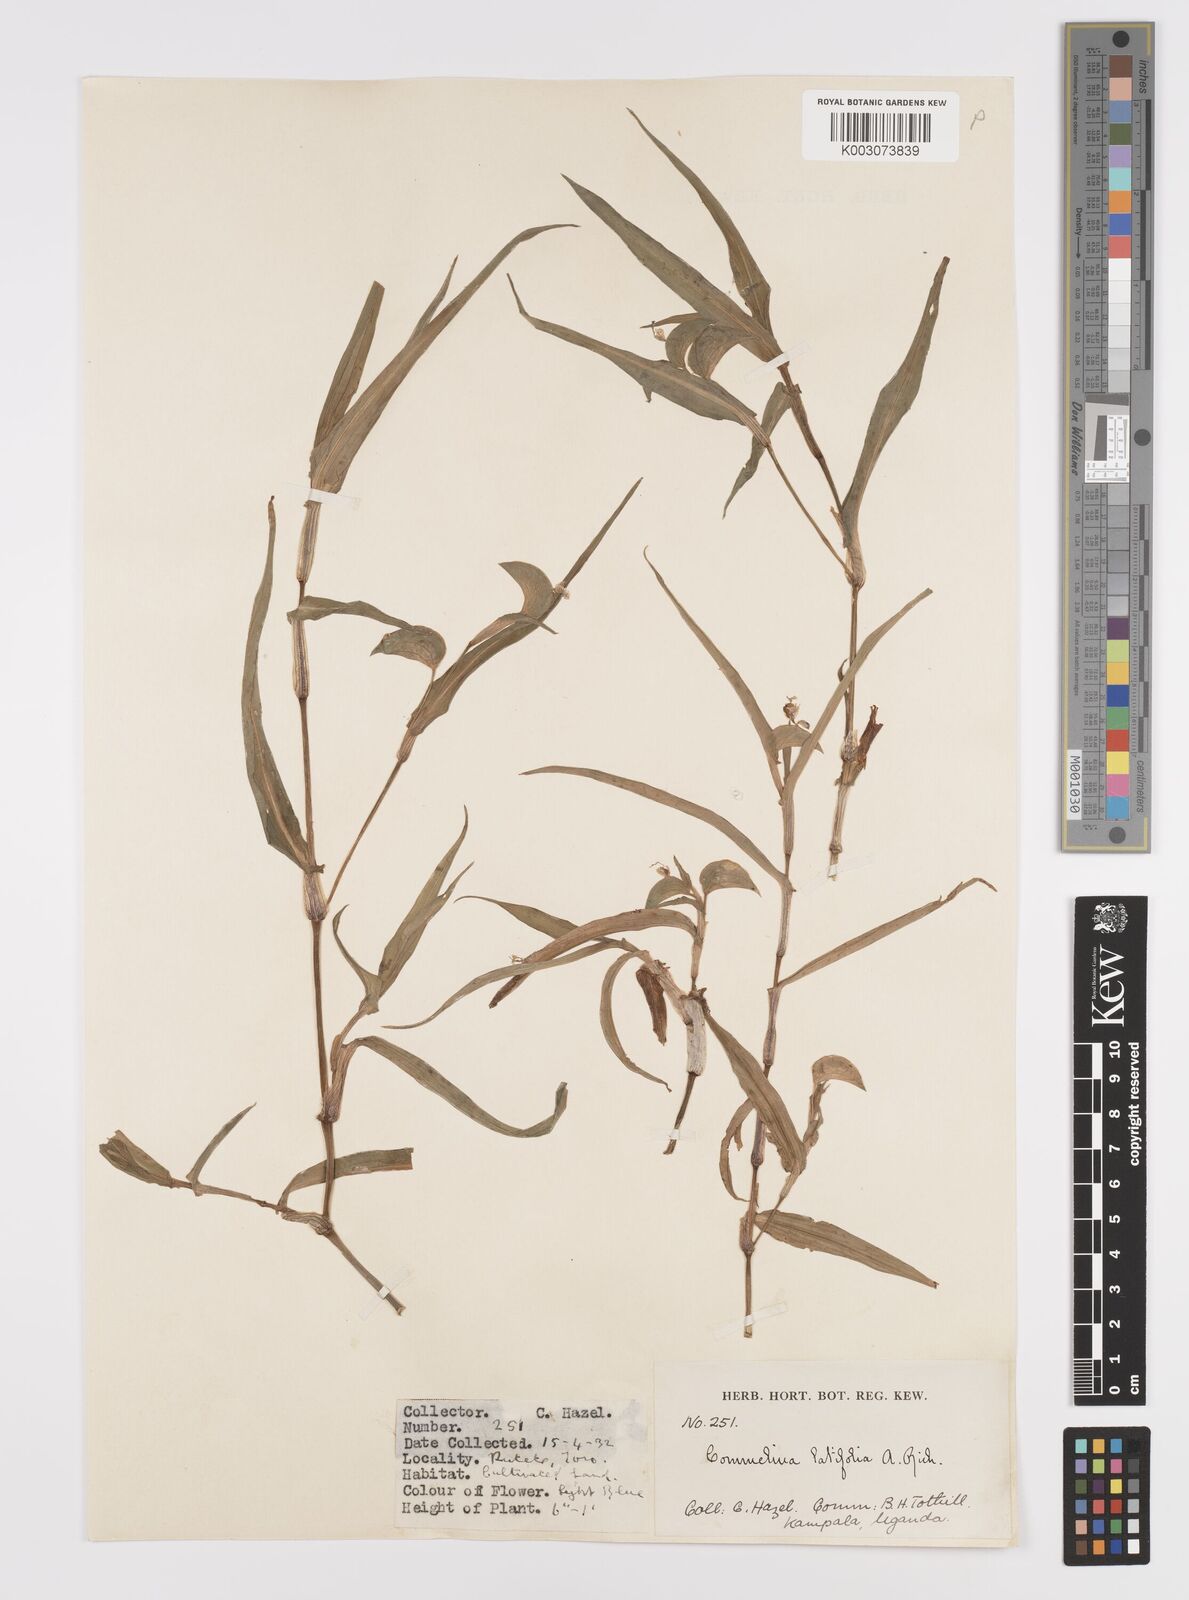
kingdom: Plantae
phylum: Tracheophyta
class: Liliopsida
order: Commelinales
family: Commelinaceae
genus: Commelina
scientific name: Commelina latifolia
